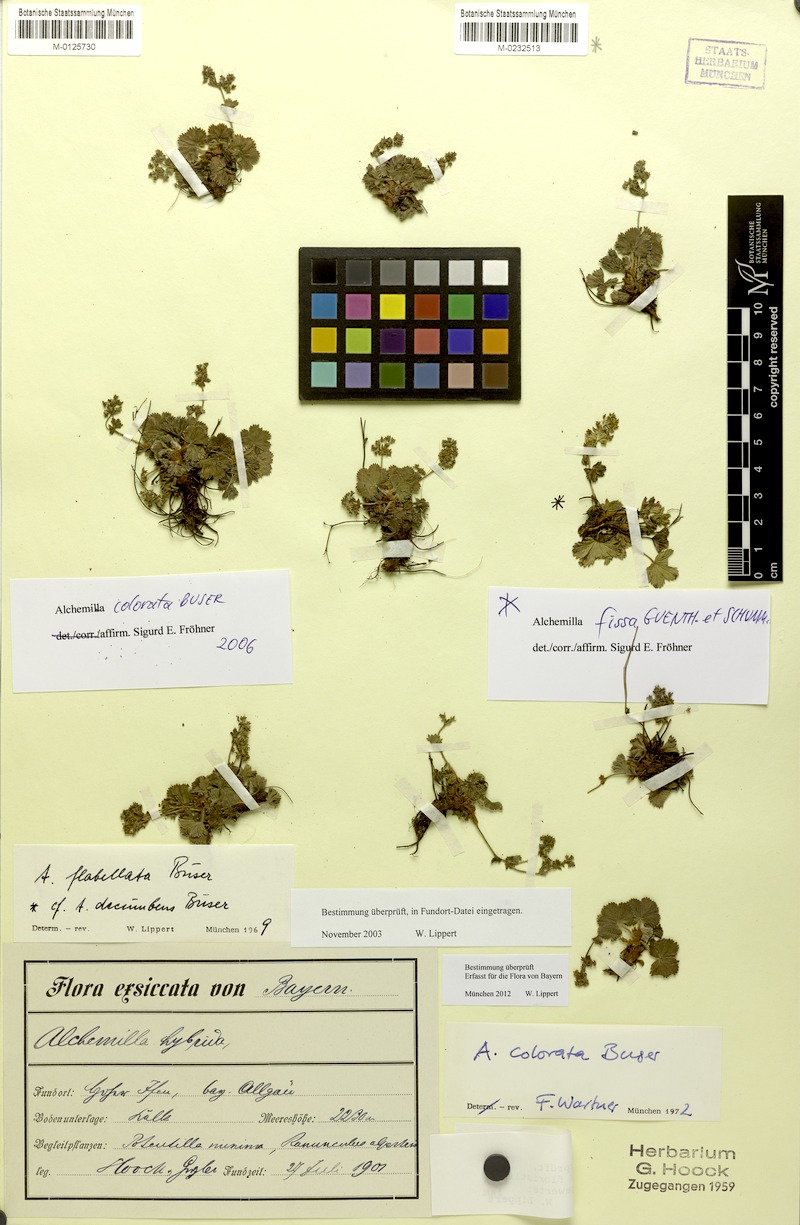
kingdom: Plantae
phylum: Tracheophyta
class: Magnoliopsida
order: Rosales
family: Rosaceae
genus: Alchemilla
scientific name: Alchemilla fissa
